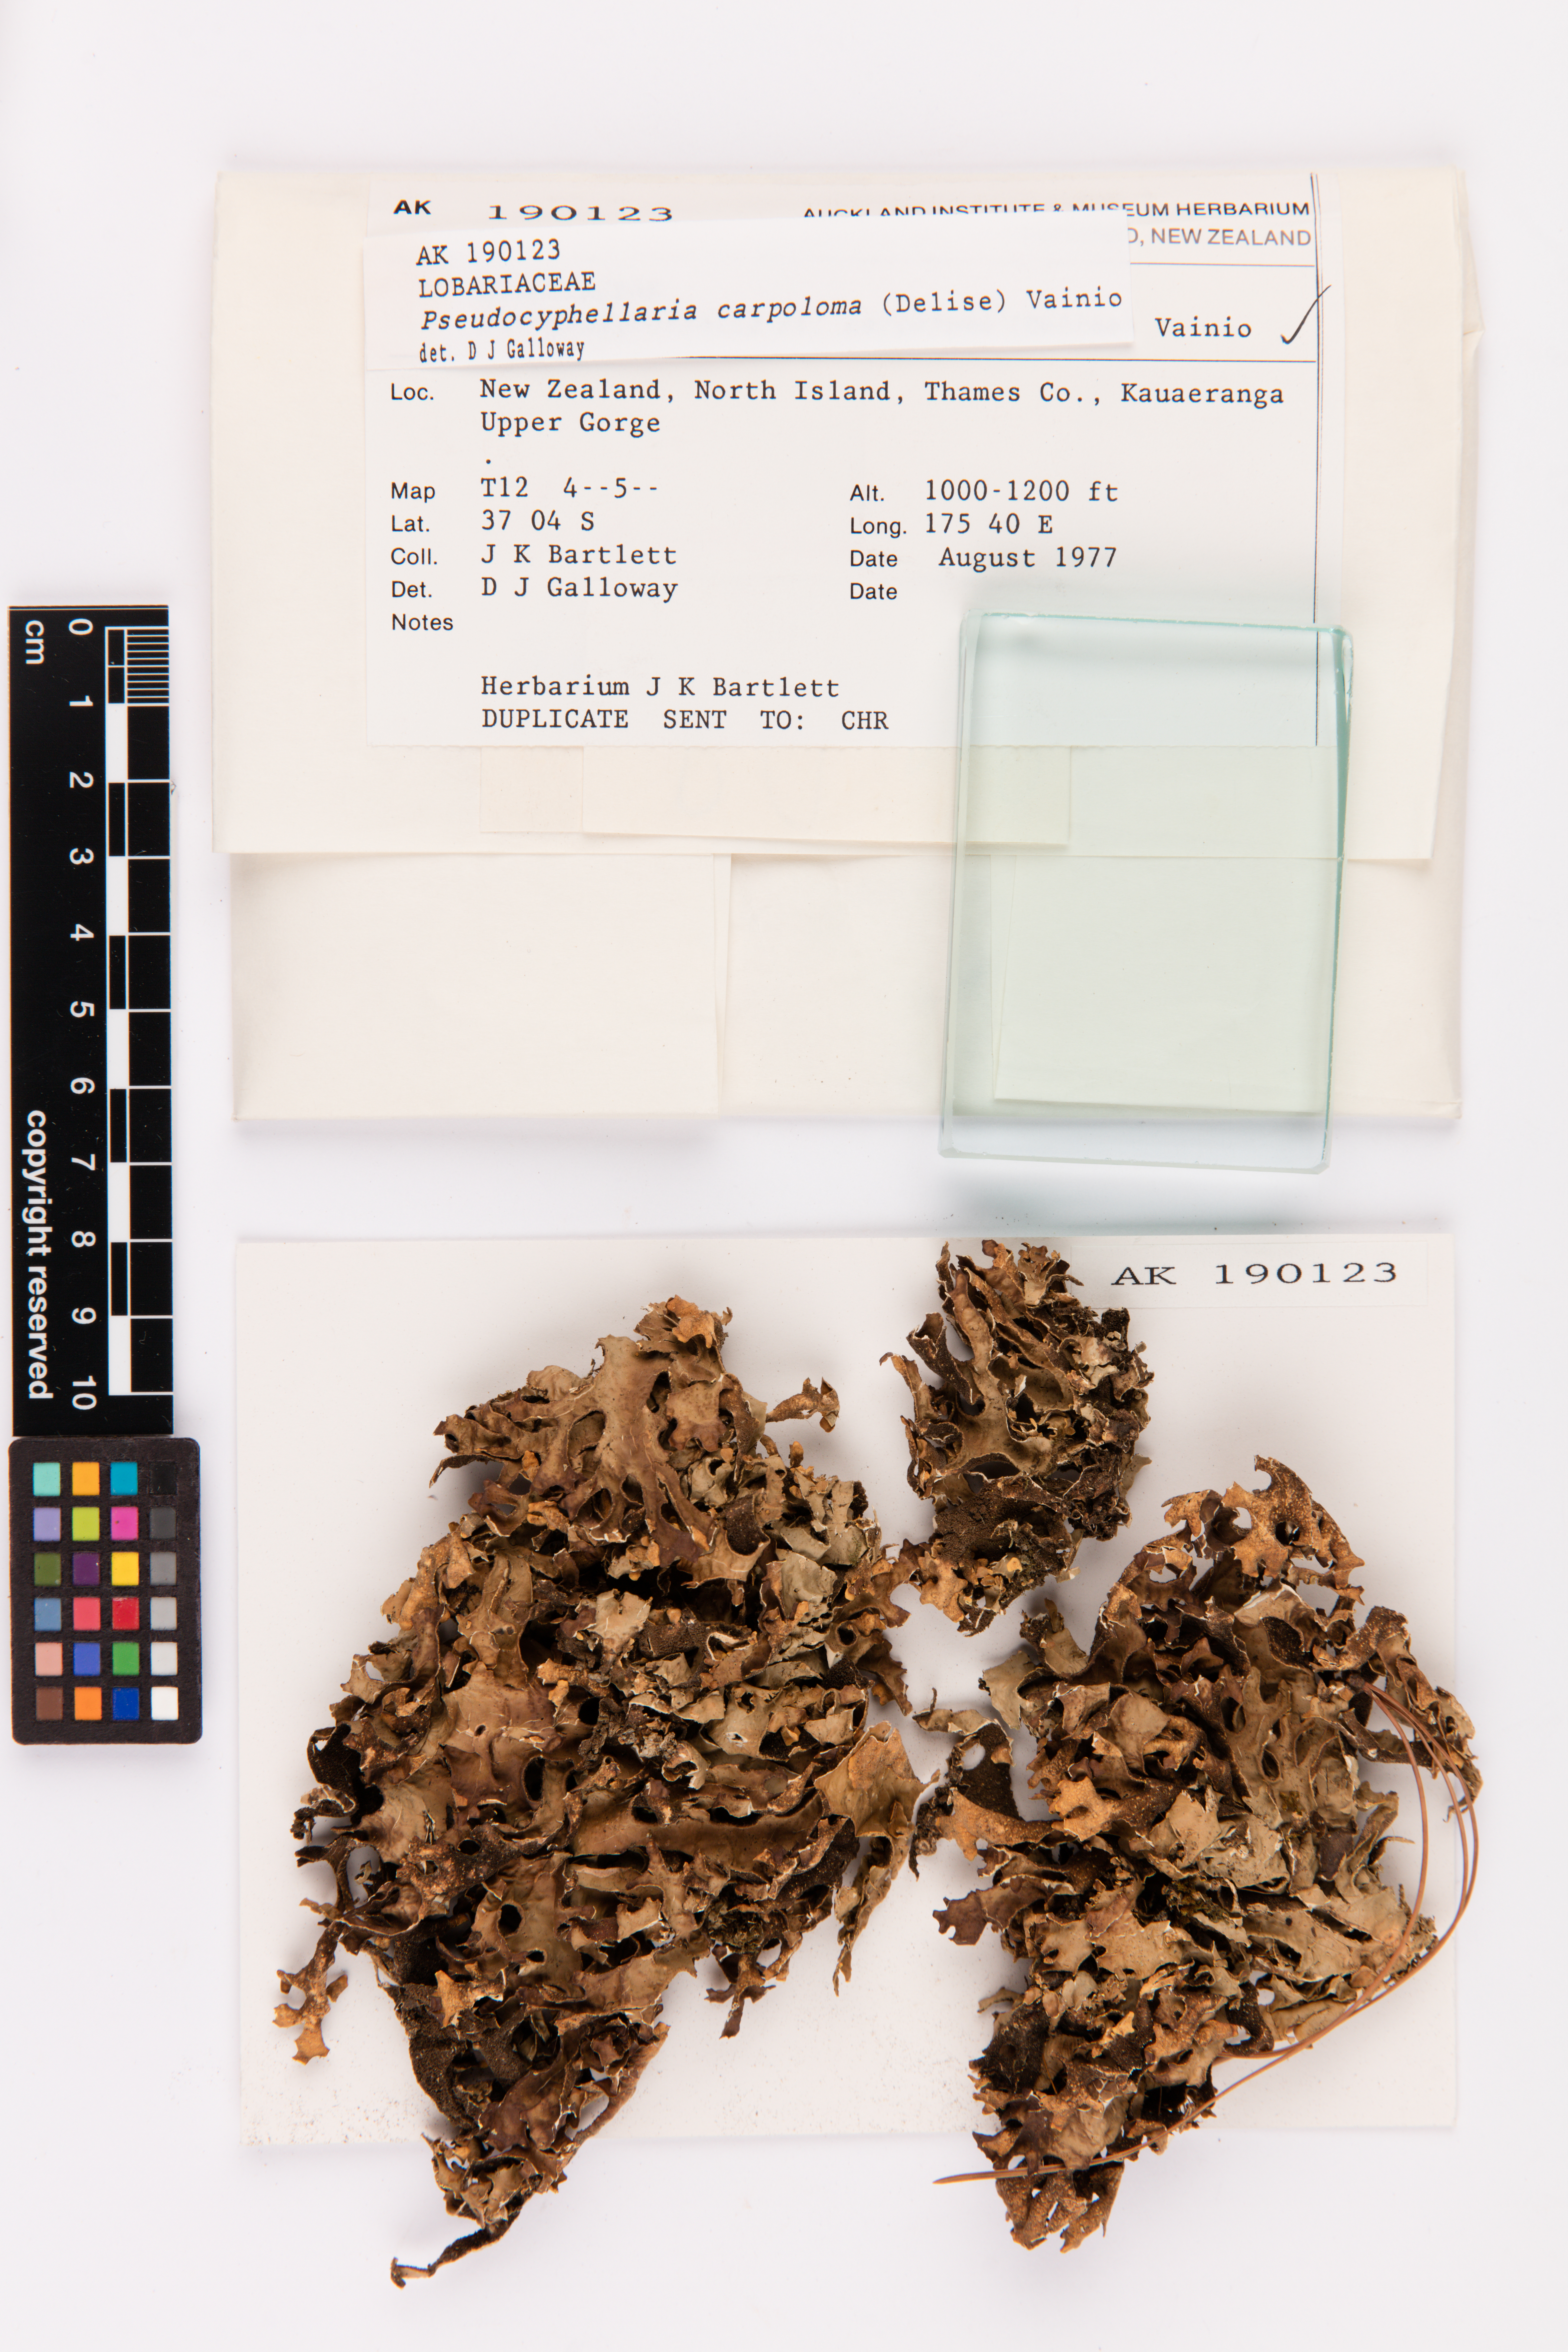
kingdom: Fungi
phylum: Ascomycota
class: Lecanoromycetes
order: Peltigerales
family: Lobariaceae
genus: Pseudocyphellaria
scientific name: Pseudocyphellaria carpoloma
